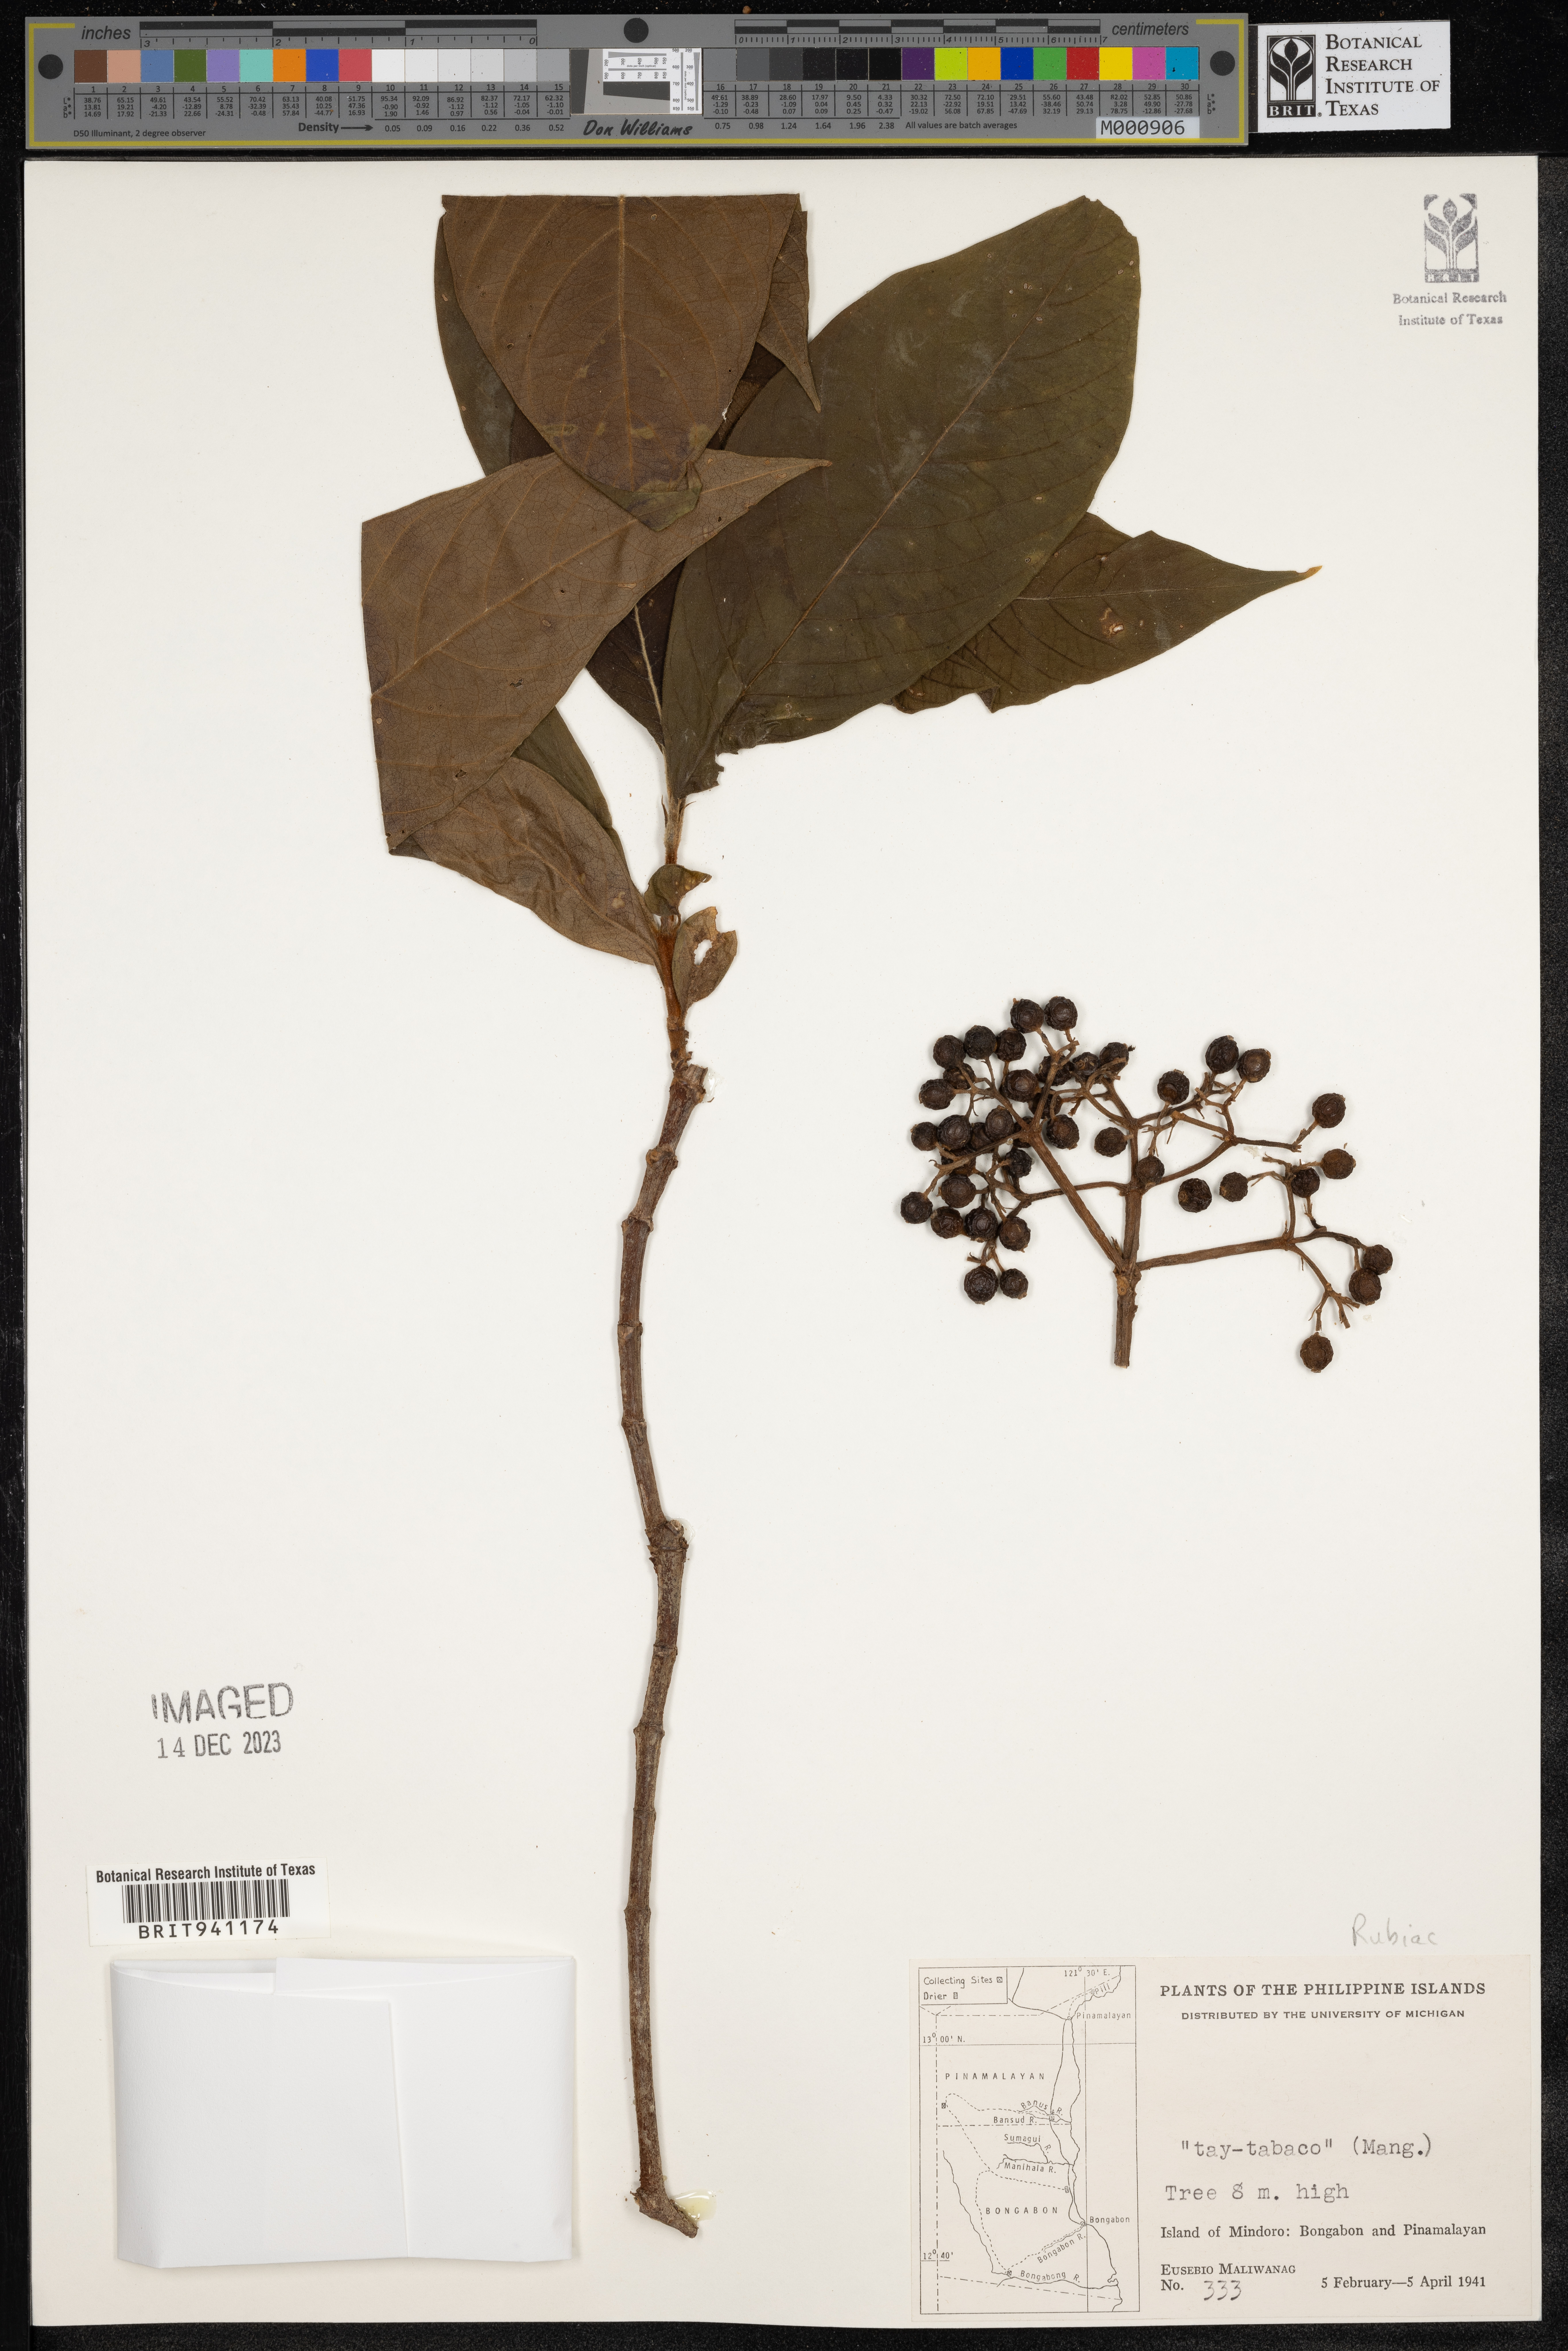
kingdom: Plantae
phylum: Tracheophyta
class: Magnoliopsida
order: Gentianales
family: Rubiaceae
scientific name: Rubiaceae
